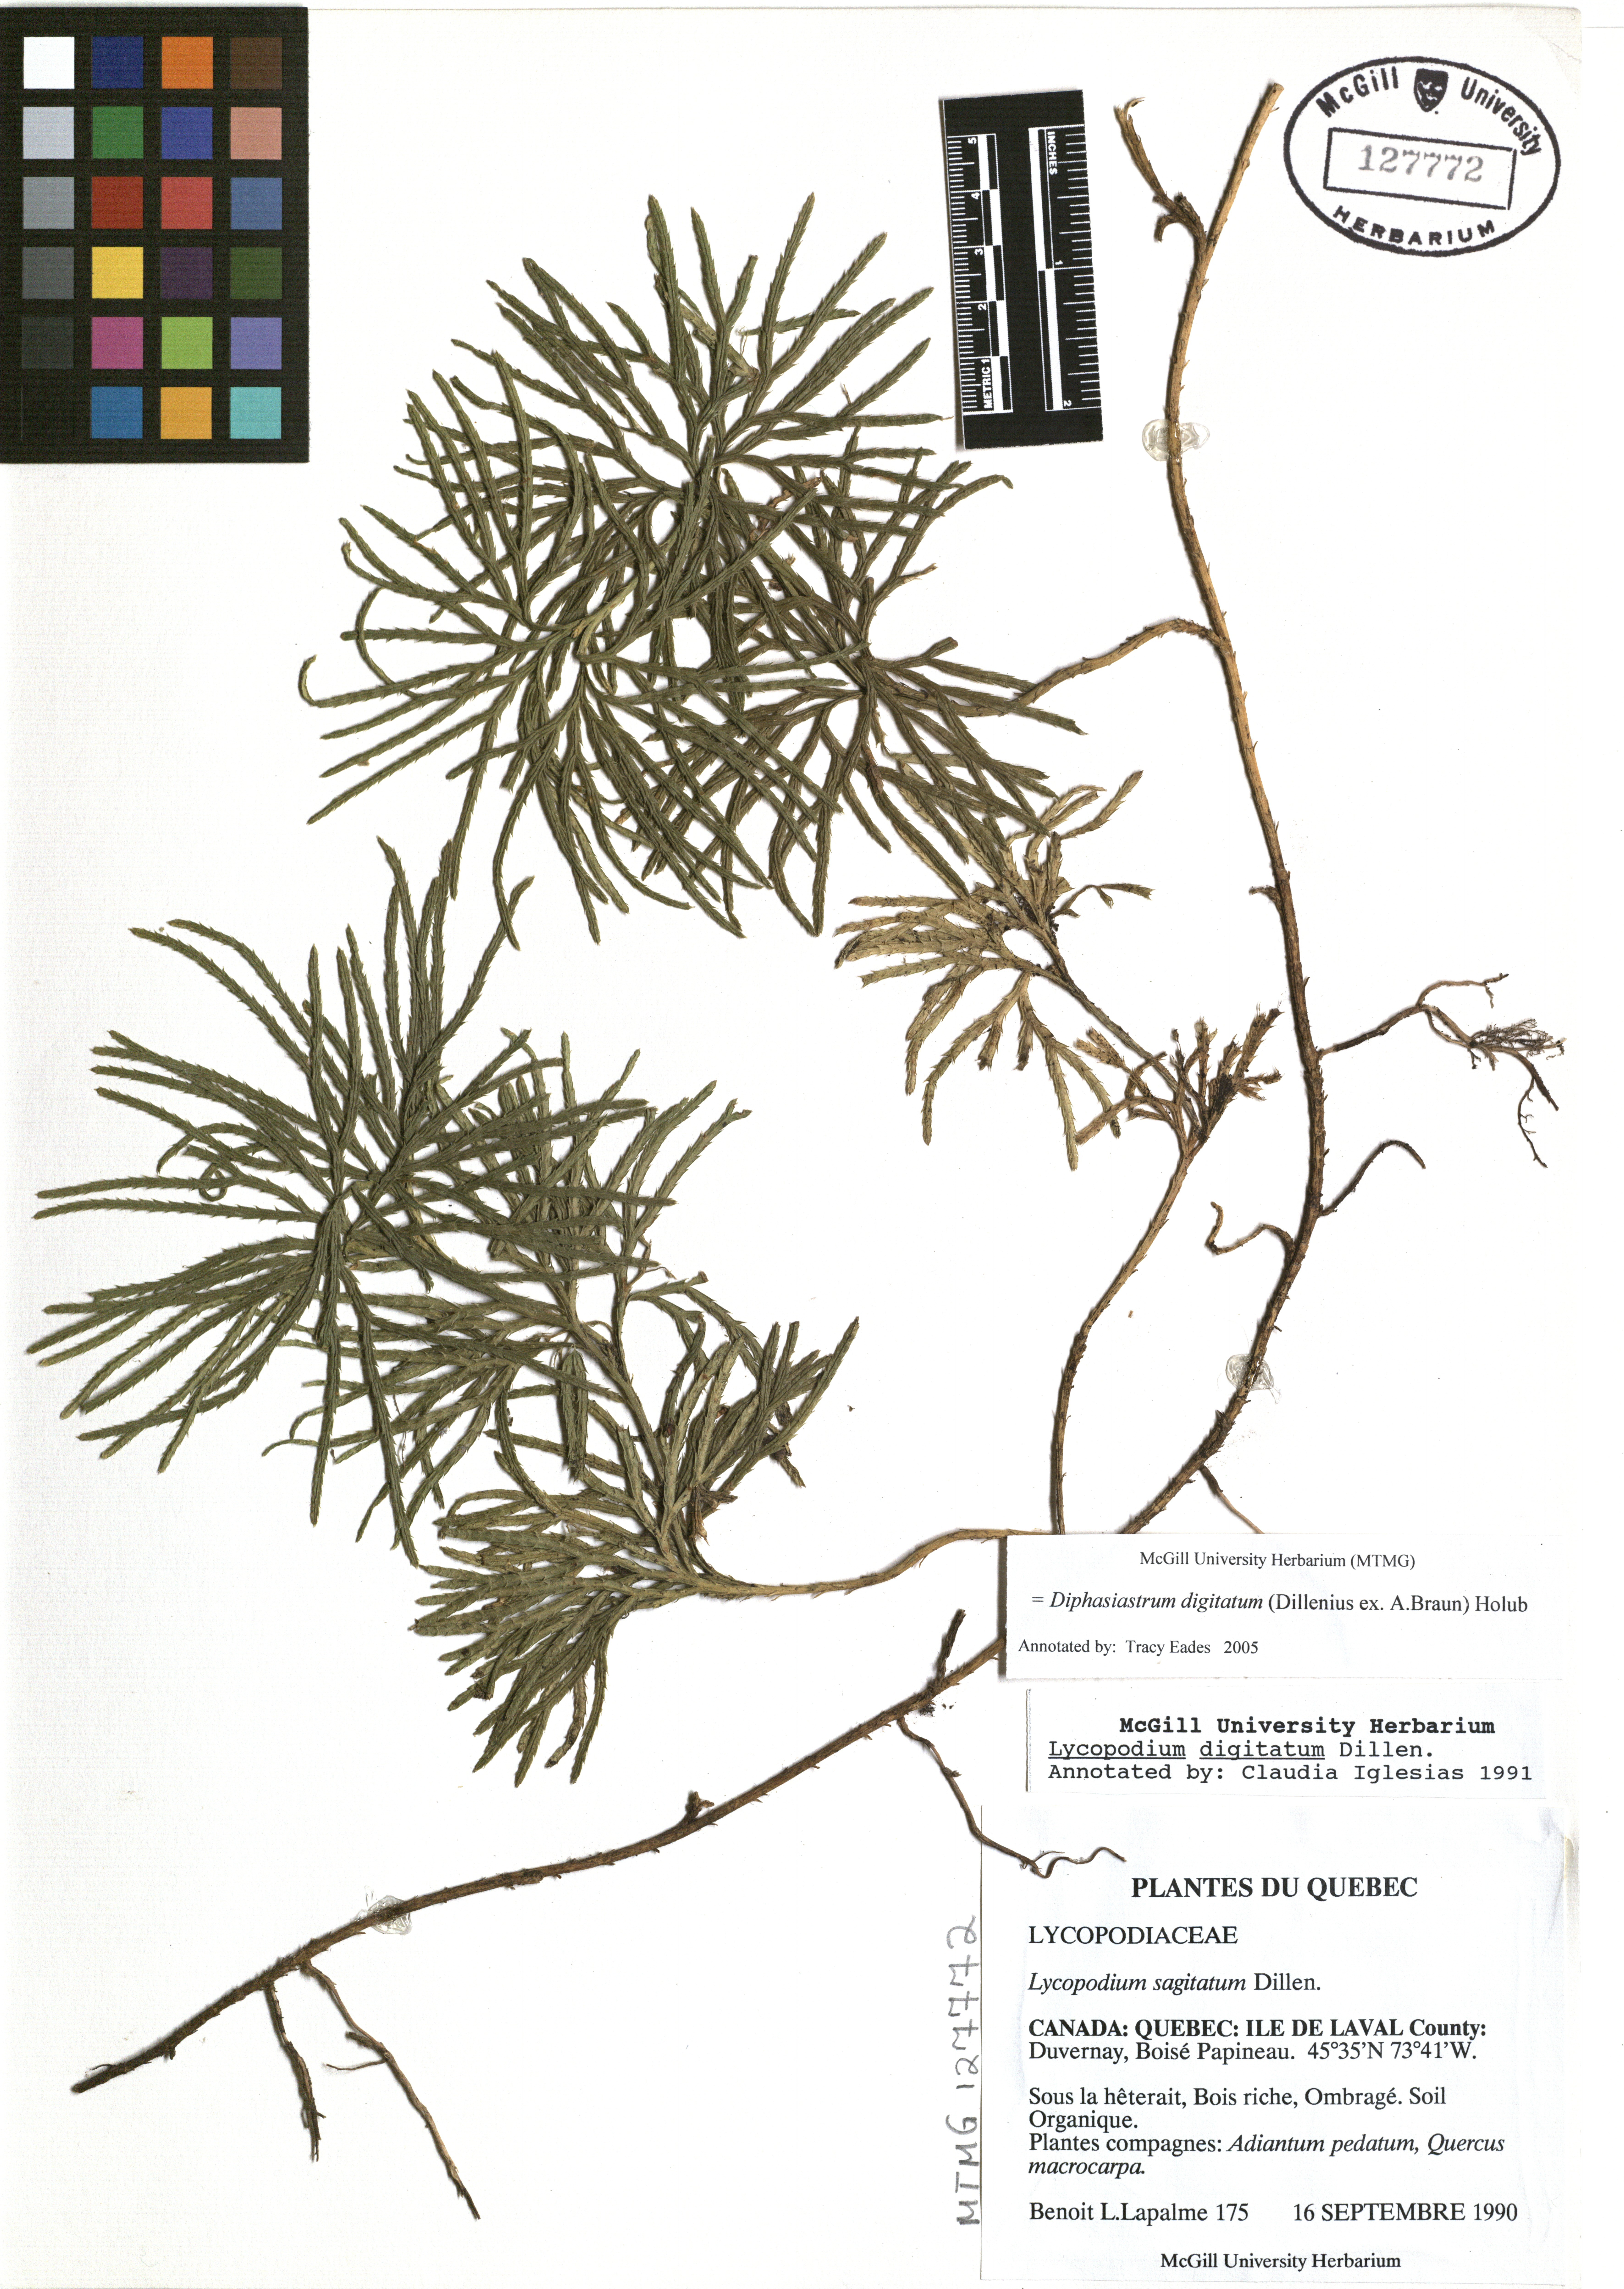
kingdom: Plantae
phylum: Tracheophyta
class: Lycopodiopsida
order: Lycopodiales
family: Lycopodiaceae
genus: Diphasiastrum
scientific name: Diphasiastrum digitatum
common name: Southern running-pine
